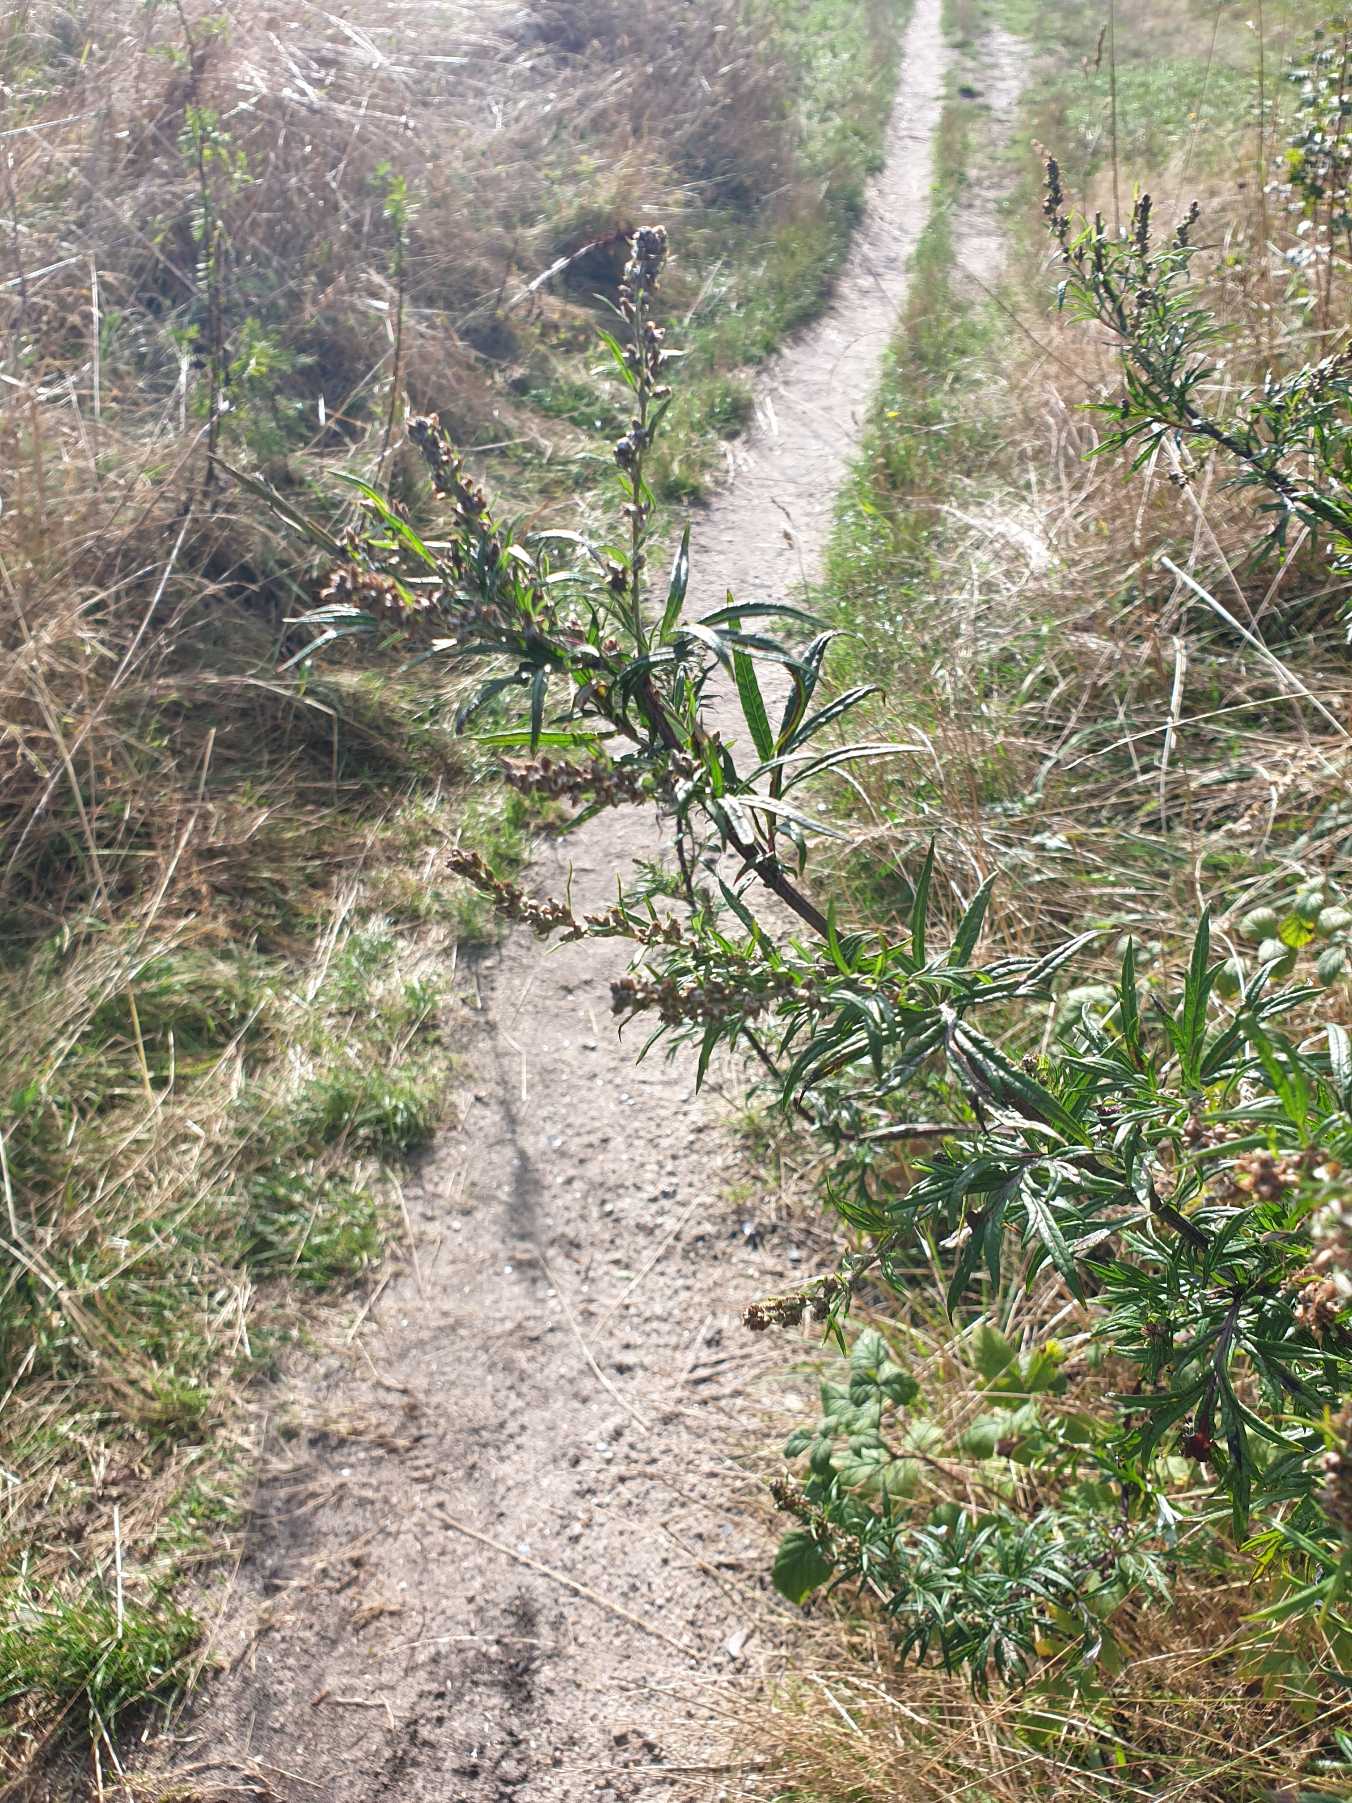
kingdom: Plantae
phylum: Tracheophyta
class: Magnoliopsida
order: Asterales
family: Asteraceae
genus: Artemisia
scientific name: Artemisia vulgaris
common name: Grå-bynke
